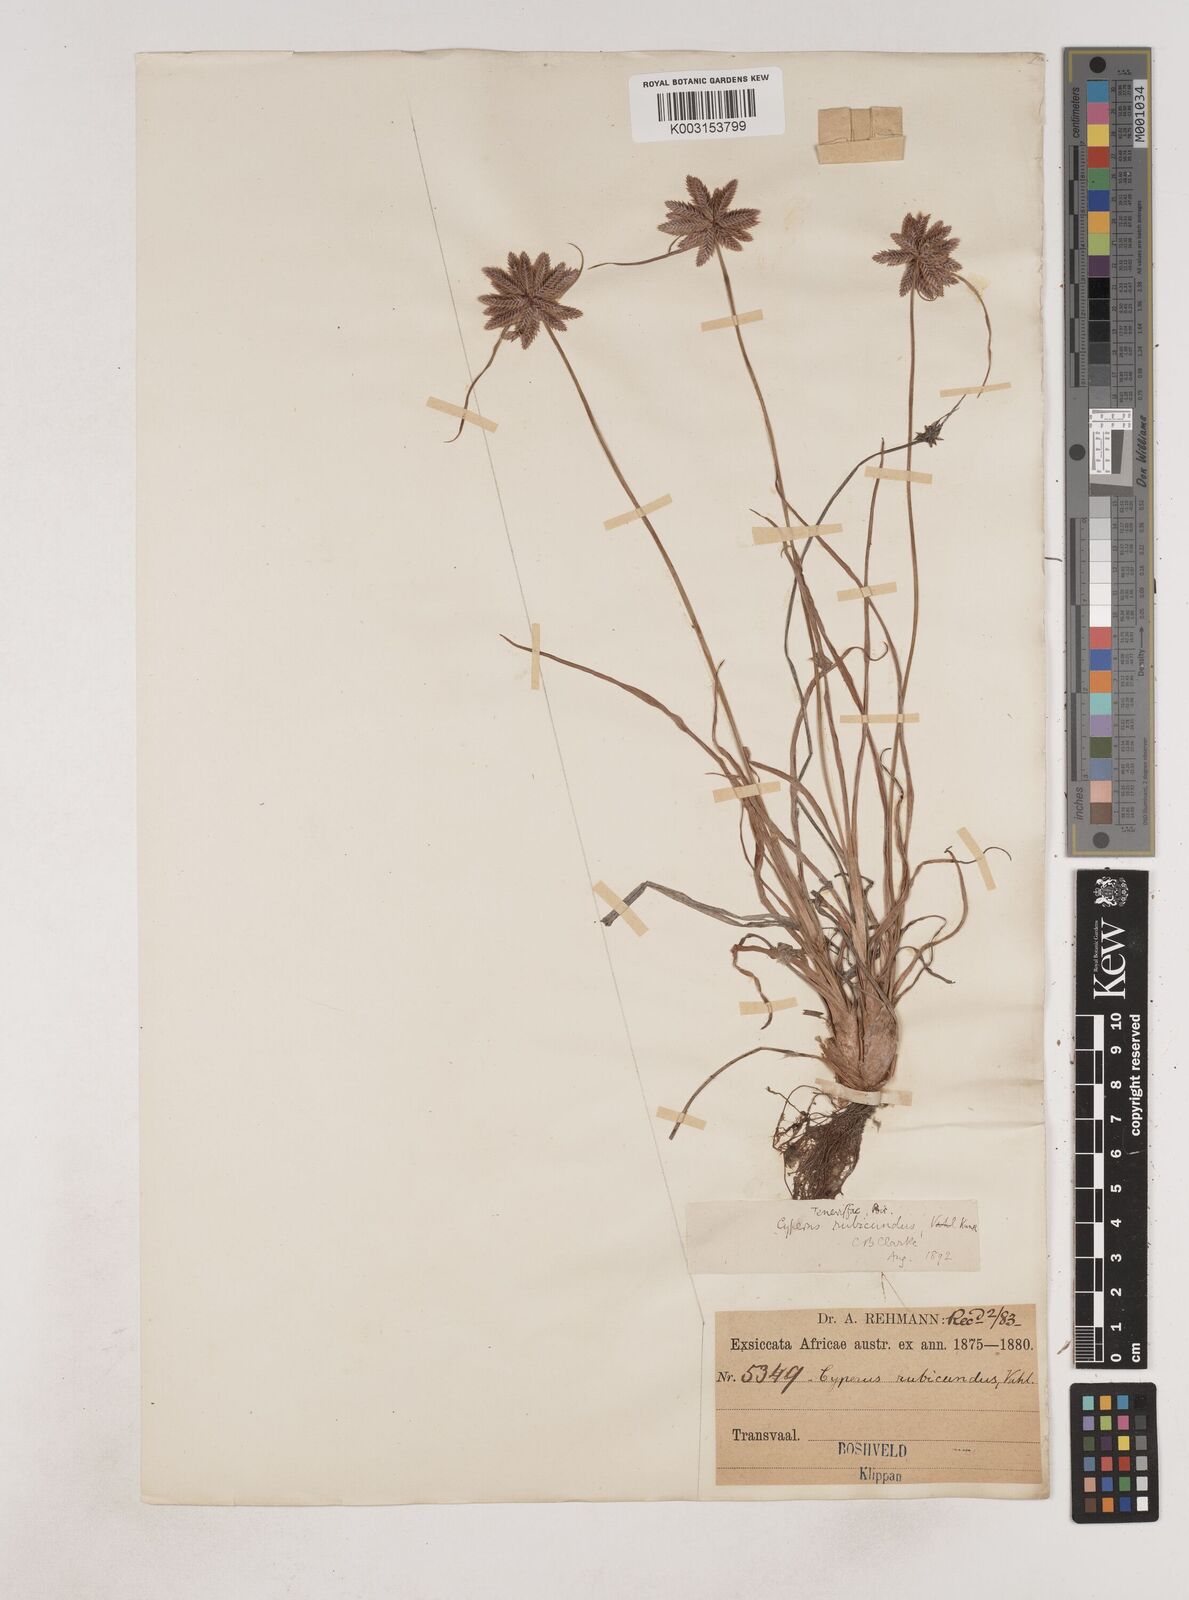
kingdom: Plantae
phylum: Tracheophyta
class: Liliopsida
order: Poales
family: Cyperaceae
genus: Cyperus
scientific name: Cyperus rubicundus
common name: Coco-grass
